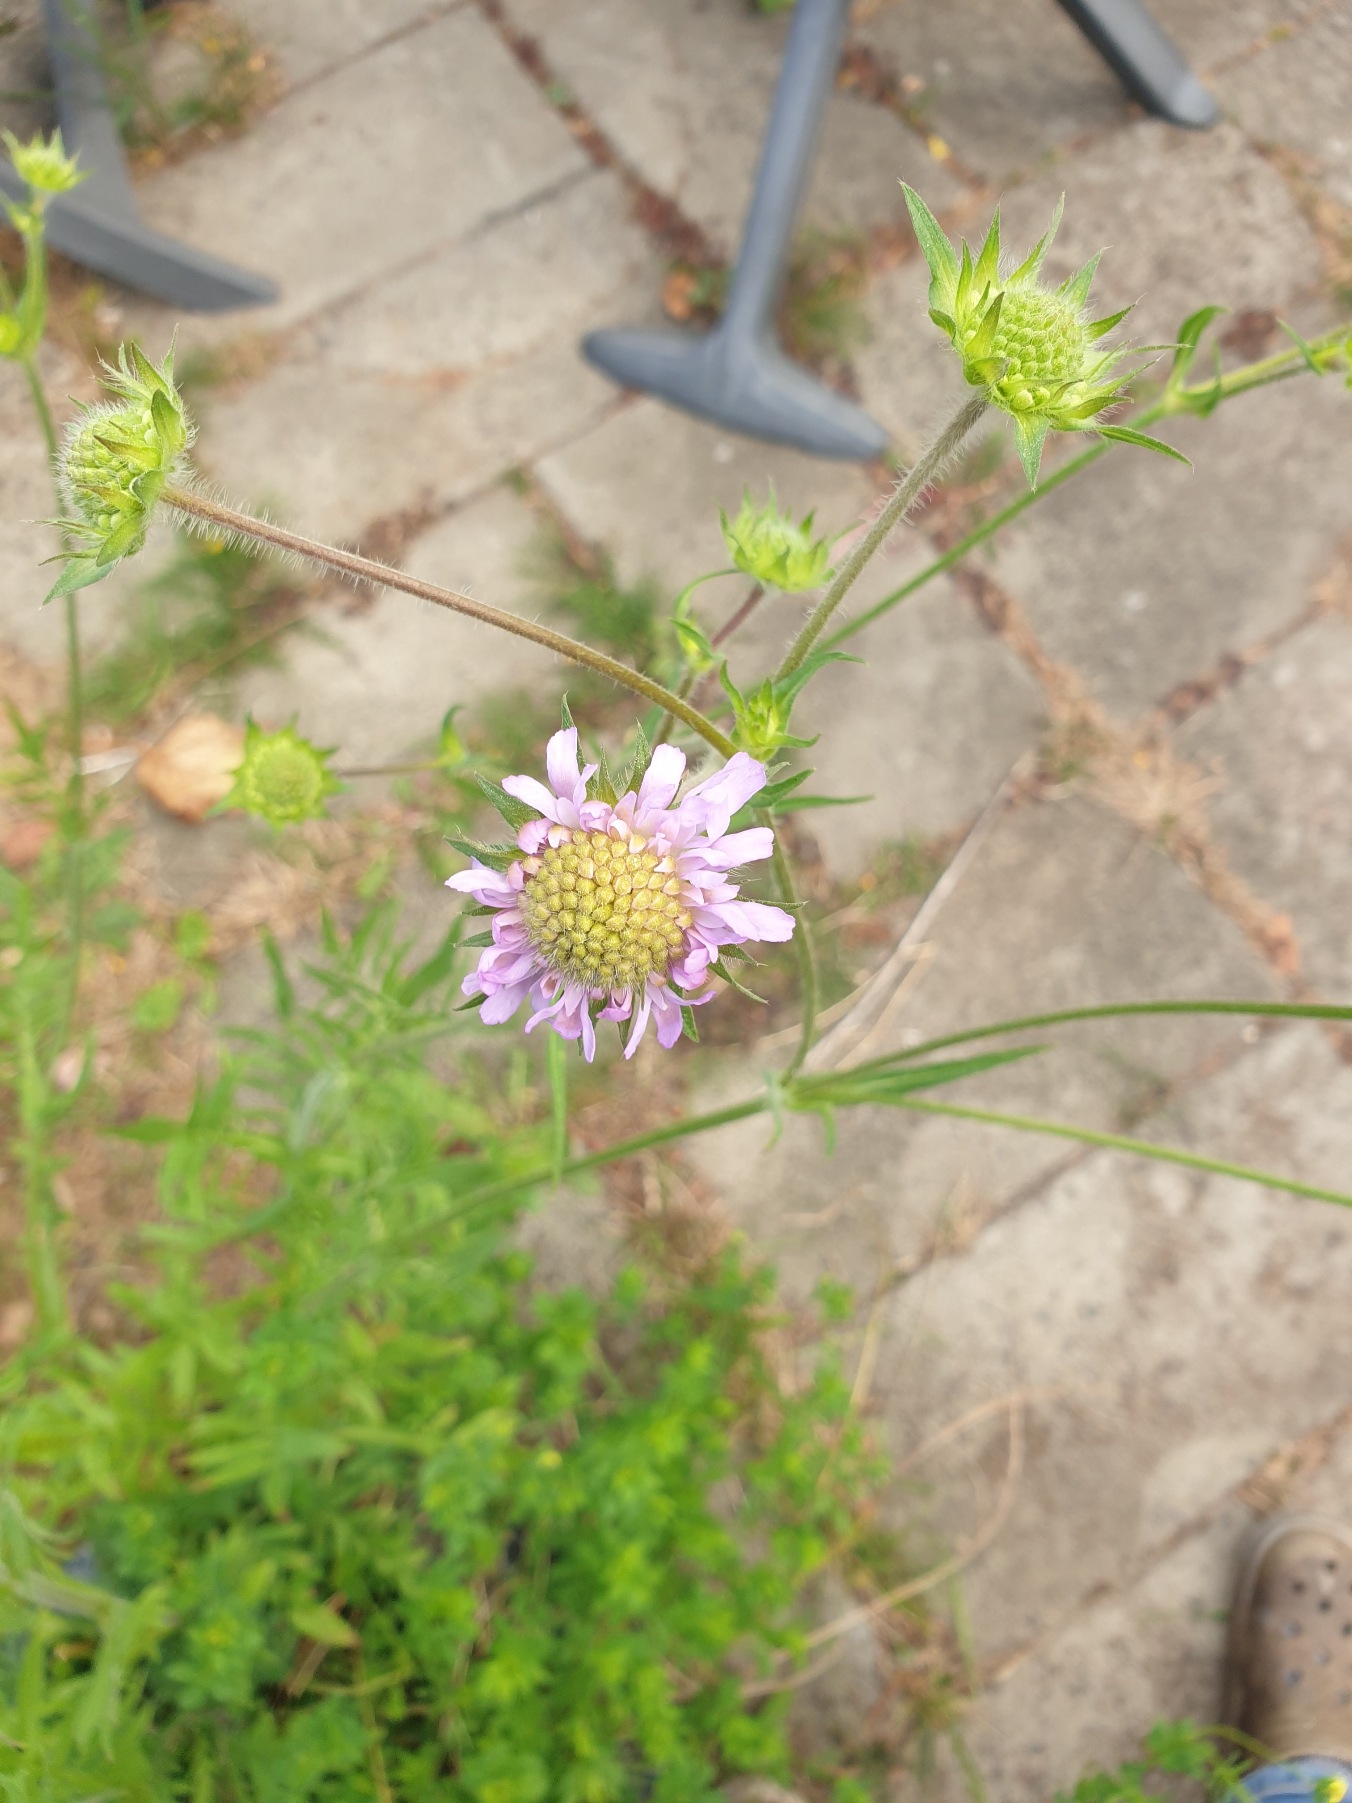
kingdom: Plantae
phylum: Tracheophyta
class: Magnoliopsida
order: Dipsacales
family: Caprifoliaceae
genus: Knautia
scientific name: Knautia arvensis
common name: Blåhat
